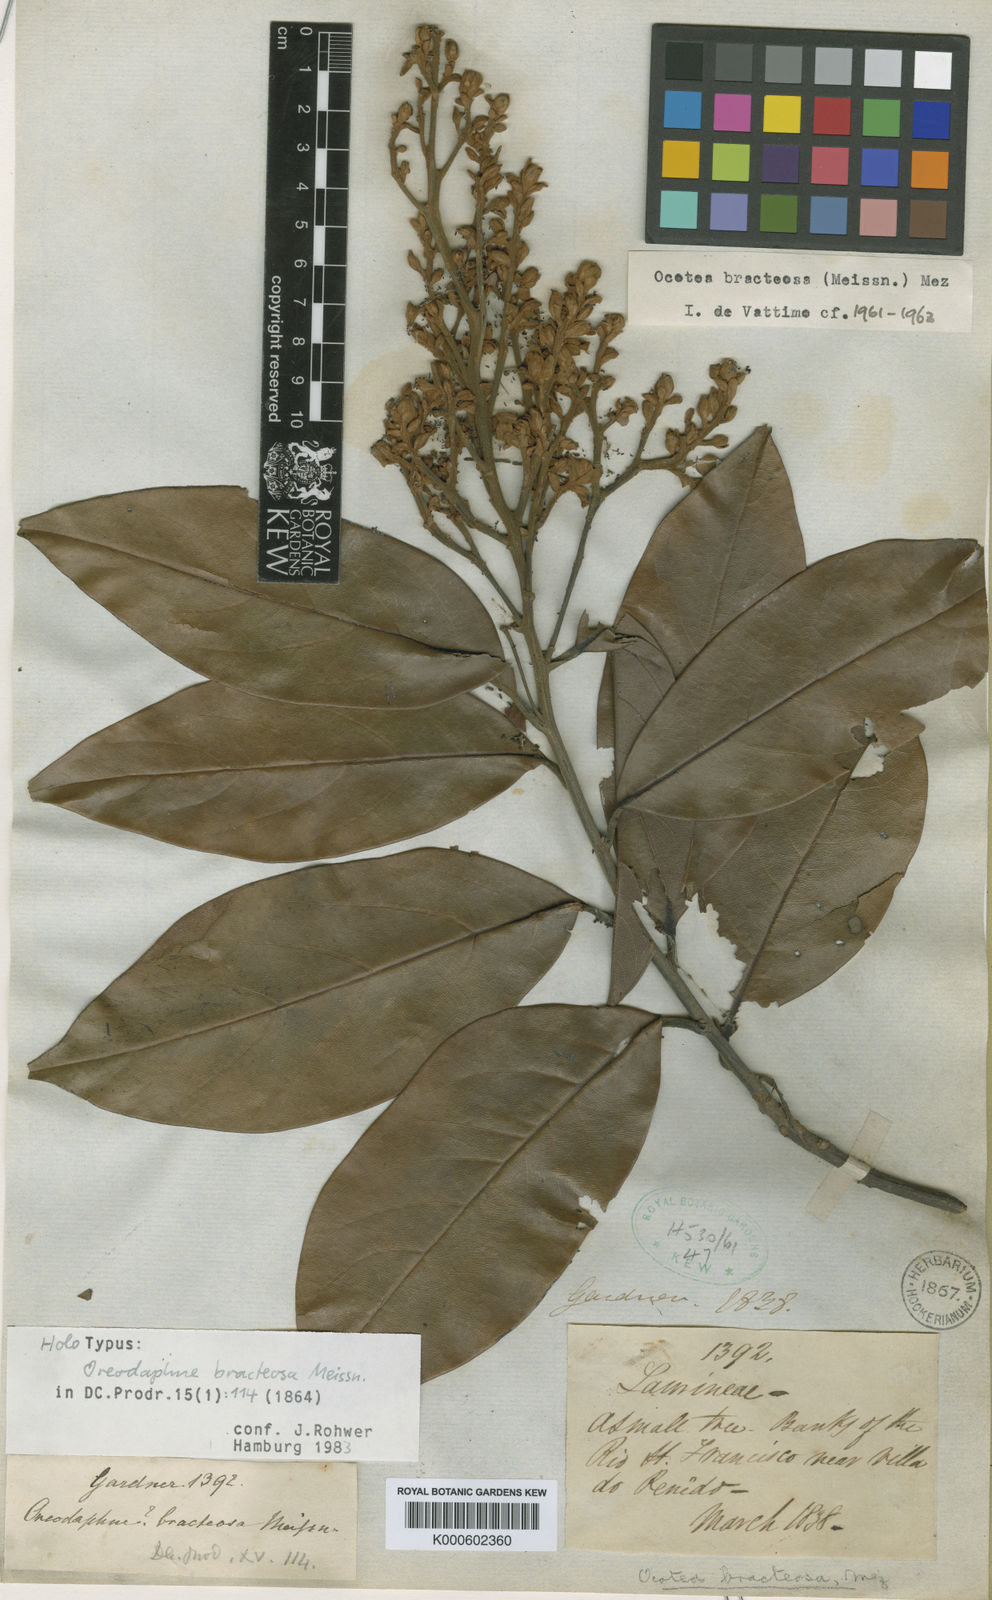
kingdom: Plantae
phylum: Tracheophyta
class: Magnoliopsida
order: Laurales
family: Lauraceae
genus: Ocotea
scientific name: Ocotea bracteosa
